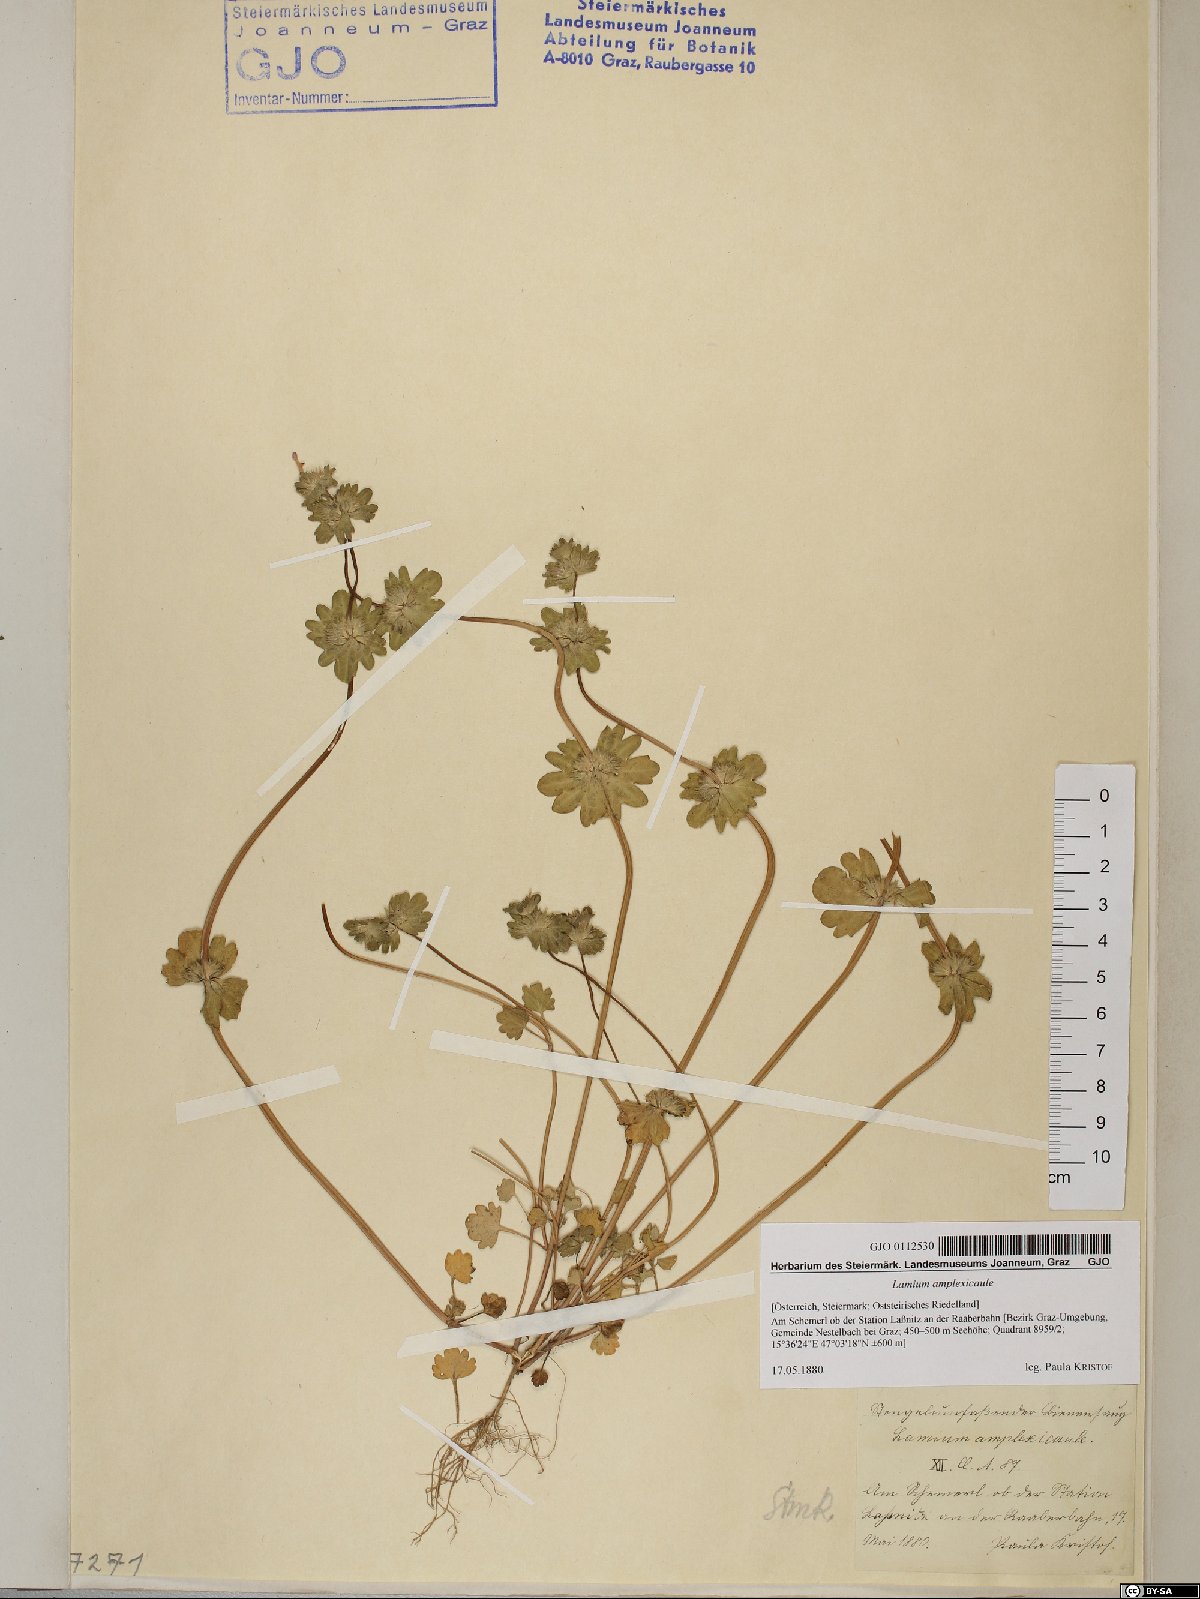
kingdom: Plantae
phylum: Tracheophyta
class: Magnoliopsida
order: Lamiales
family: Lamiaceae
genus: Lamium
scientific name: Lamium amplexicaule
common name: Henbit dead-nettle
